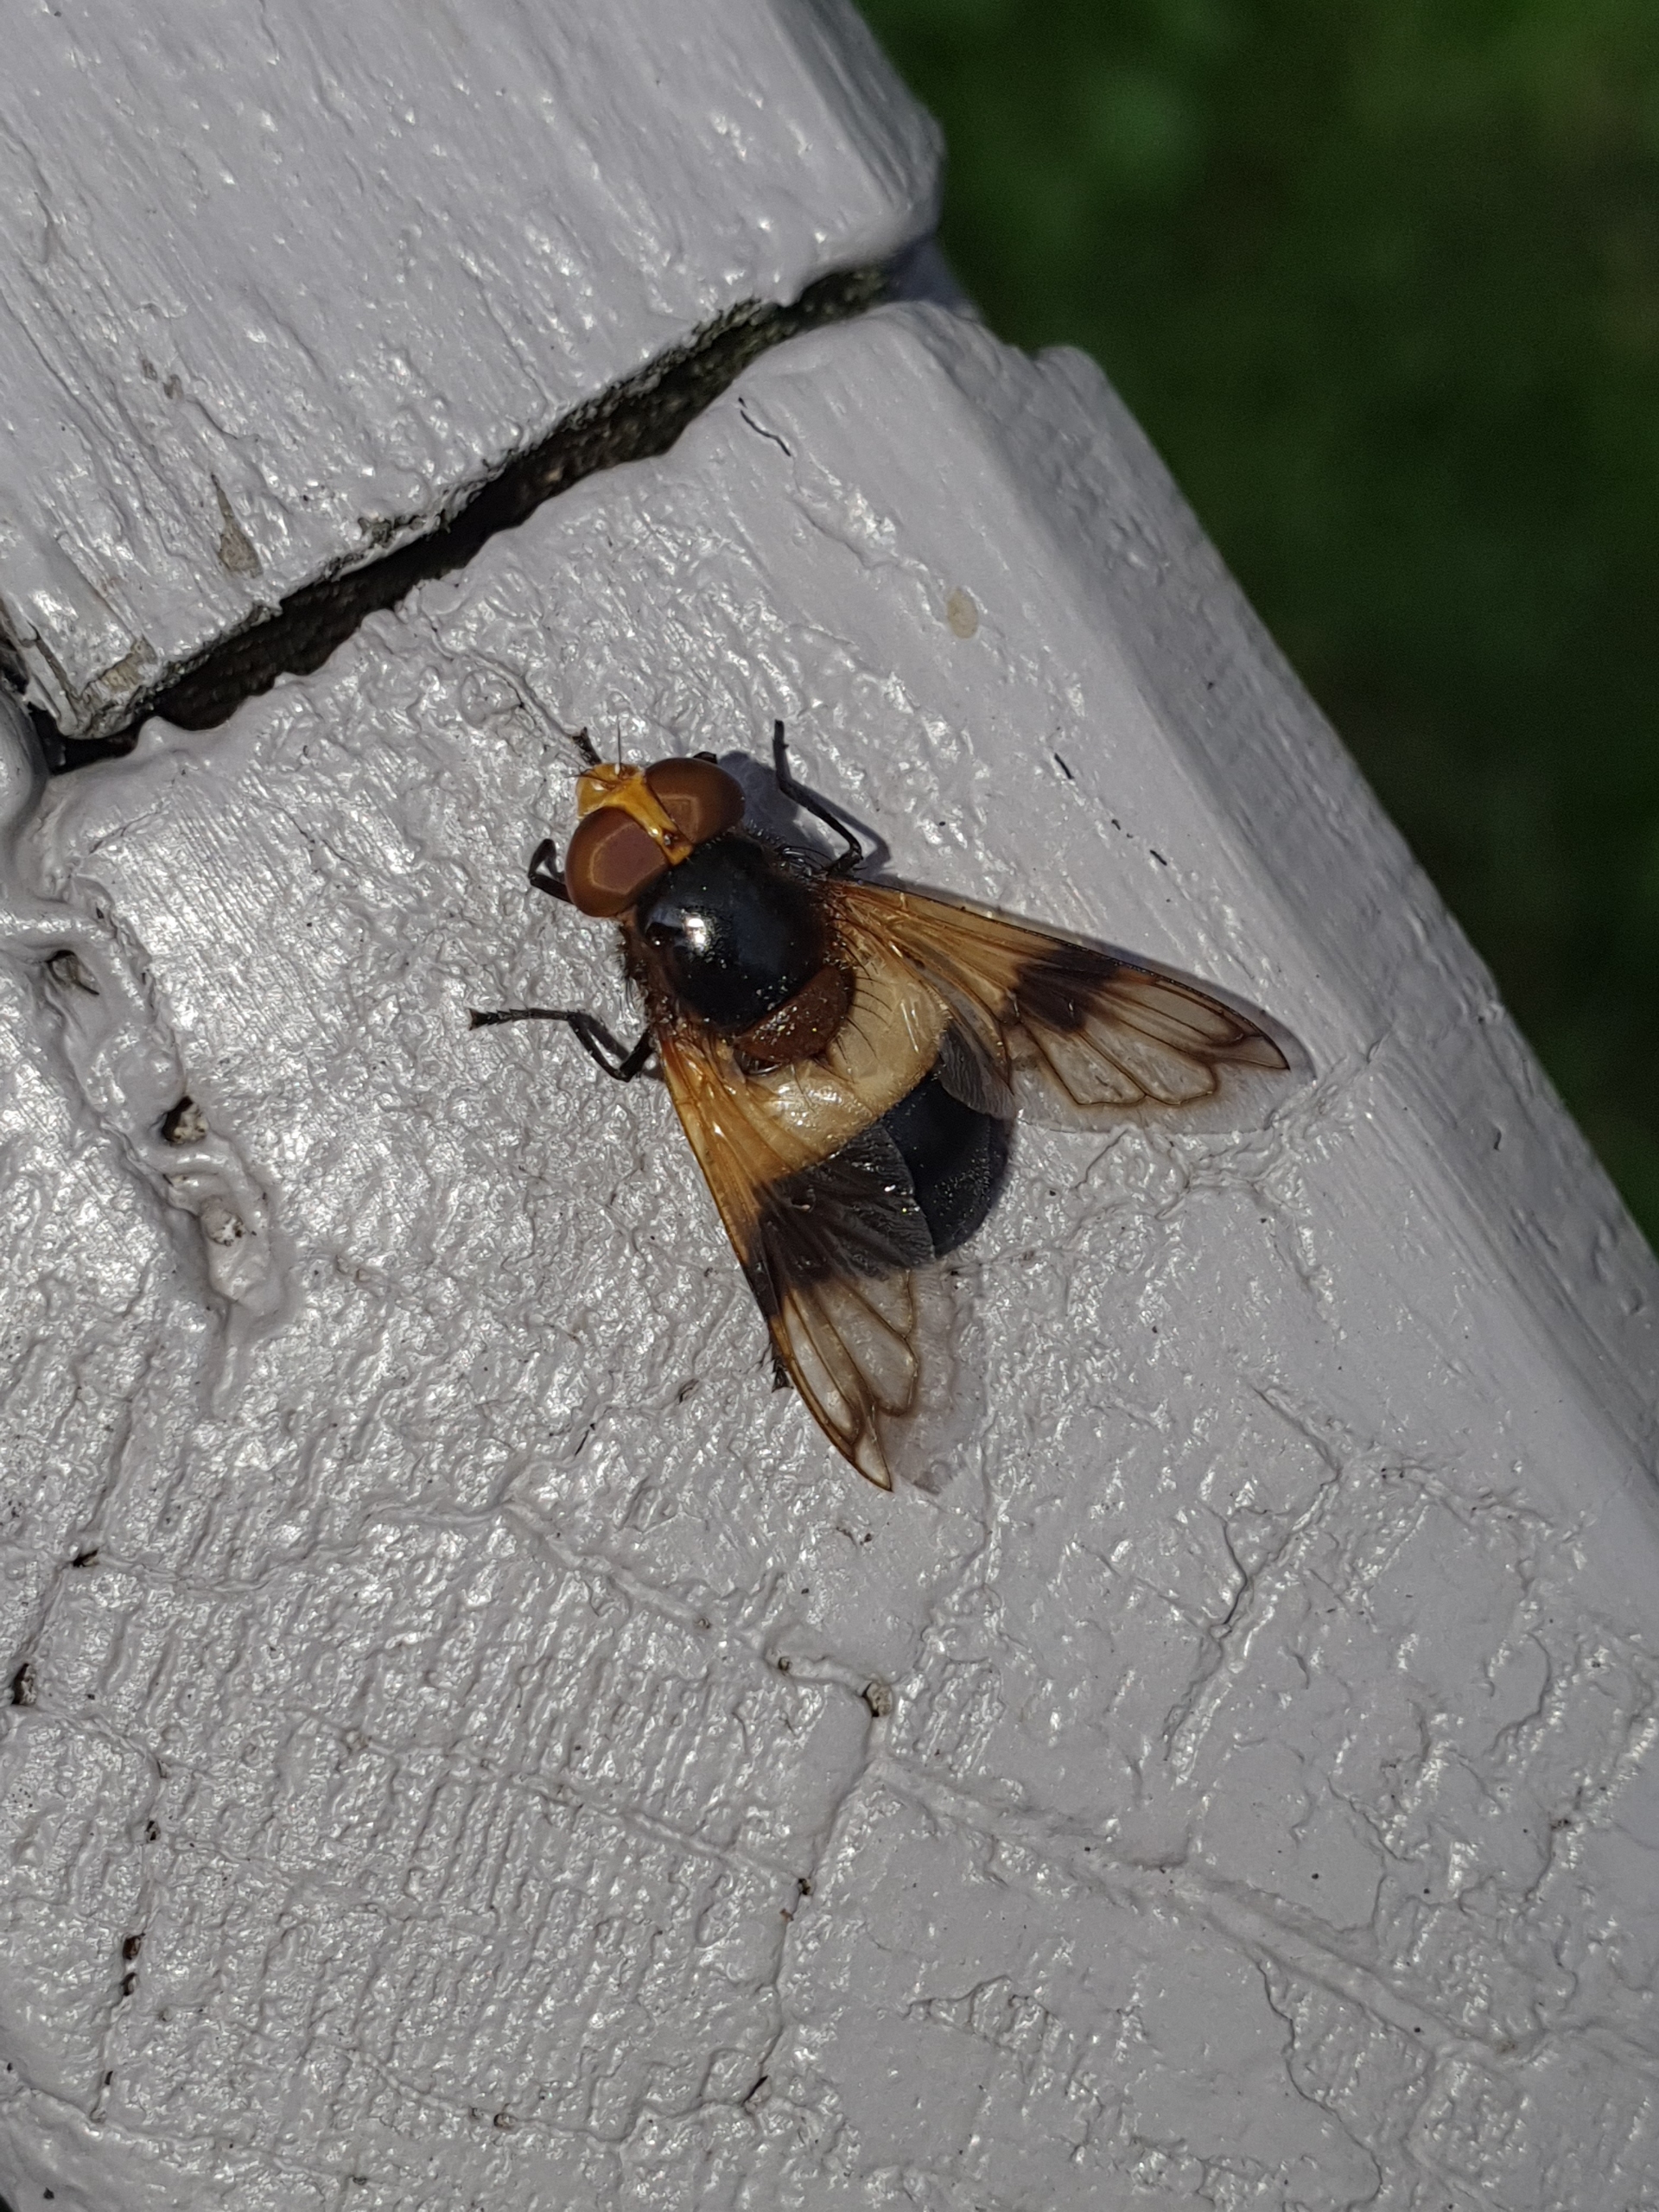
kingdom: Animalia
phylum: Arthropoda
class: Insecta
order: Diptera
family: Syrphidae
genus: Volucella
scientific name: Volucella pellucens
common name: Hvidbåndet humlesvirreflue
